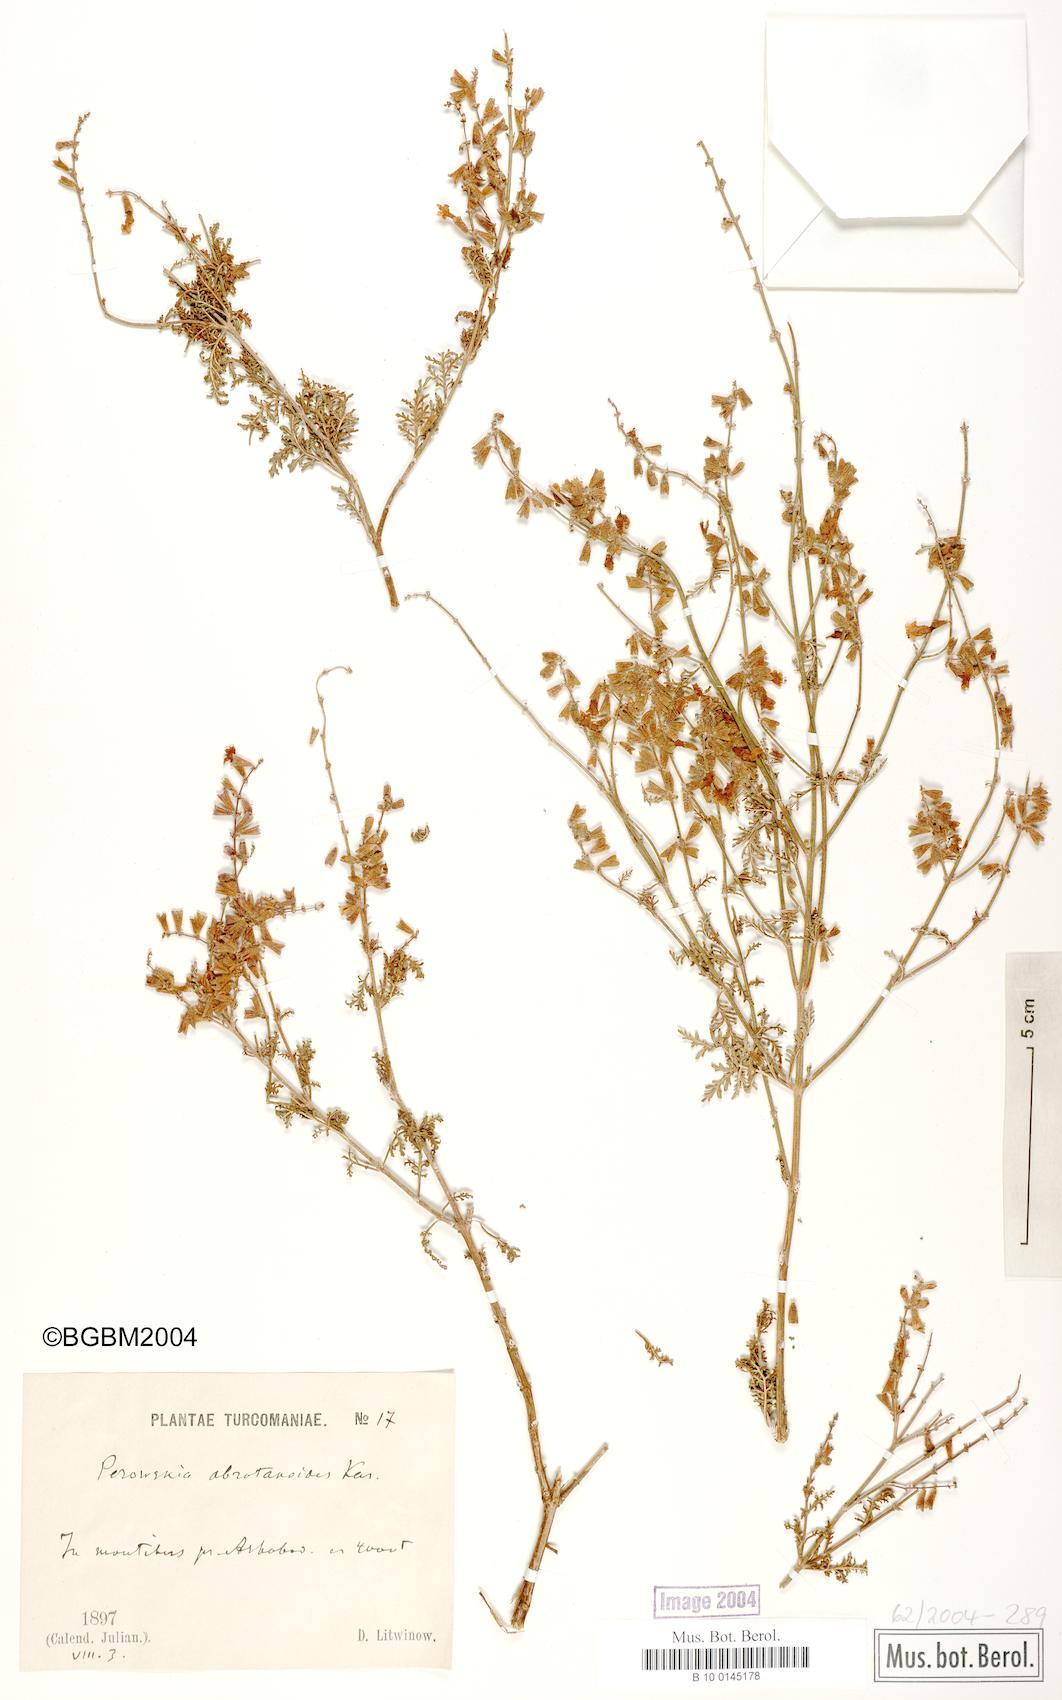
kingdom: Plantae
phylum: Tracheophyta
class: Magnoliopsida
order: Lamiales
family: Lamiaceae
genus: Salvia
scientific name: Salvia abrotanoides
